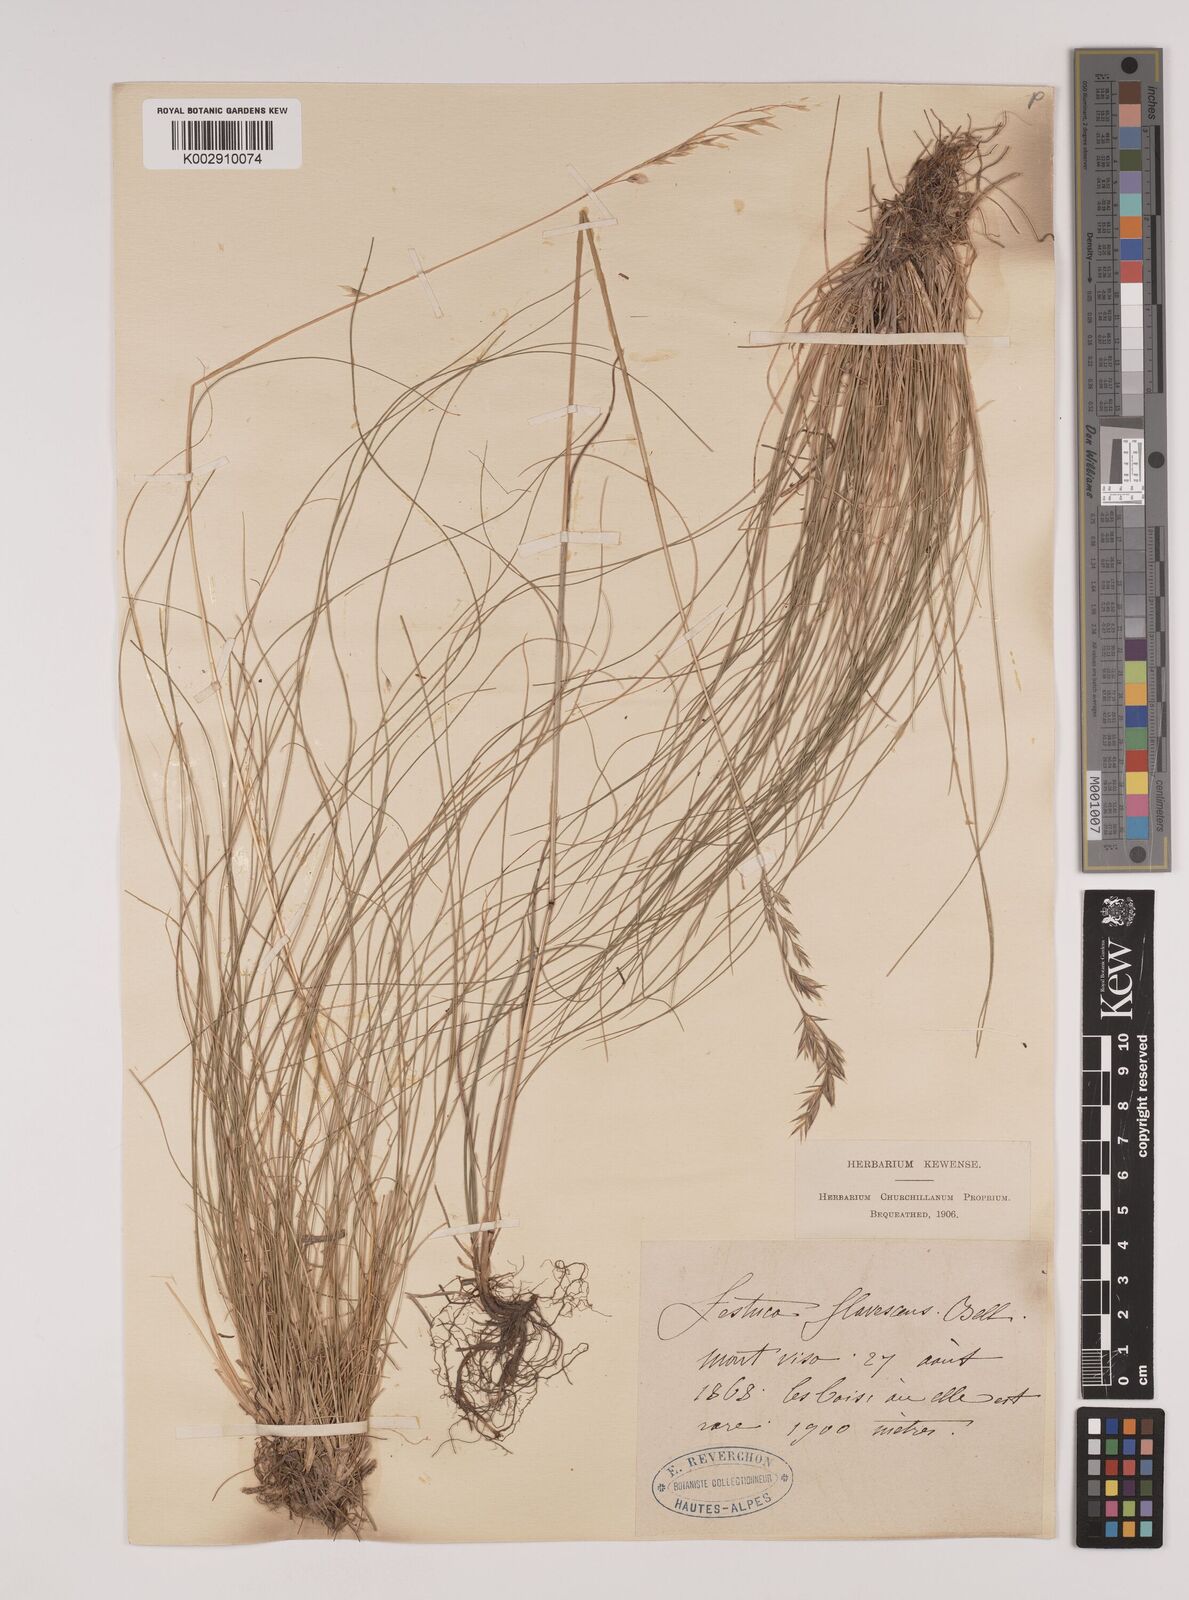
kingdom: Plantae
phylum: Tracheophyta
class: Liliopsida
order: Poales
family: Poaceae
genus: Festuca
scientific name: Festuca flavescens
